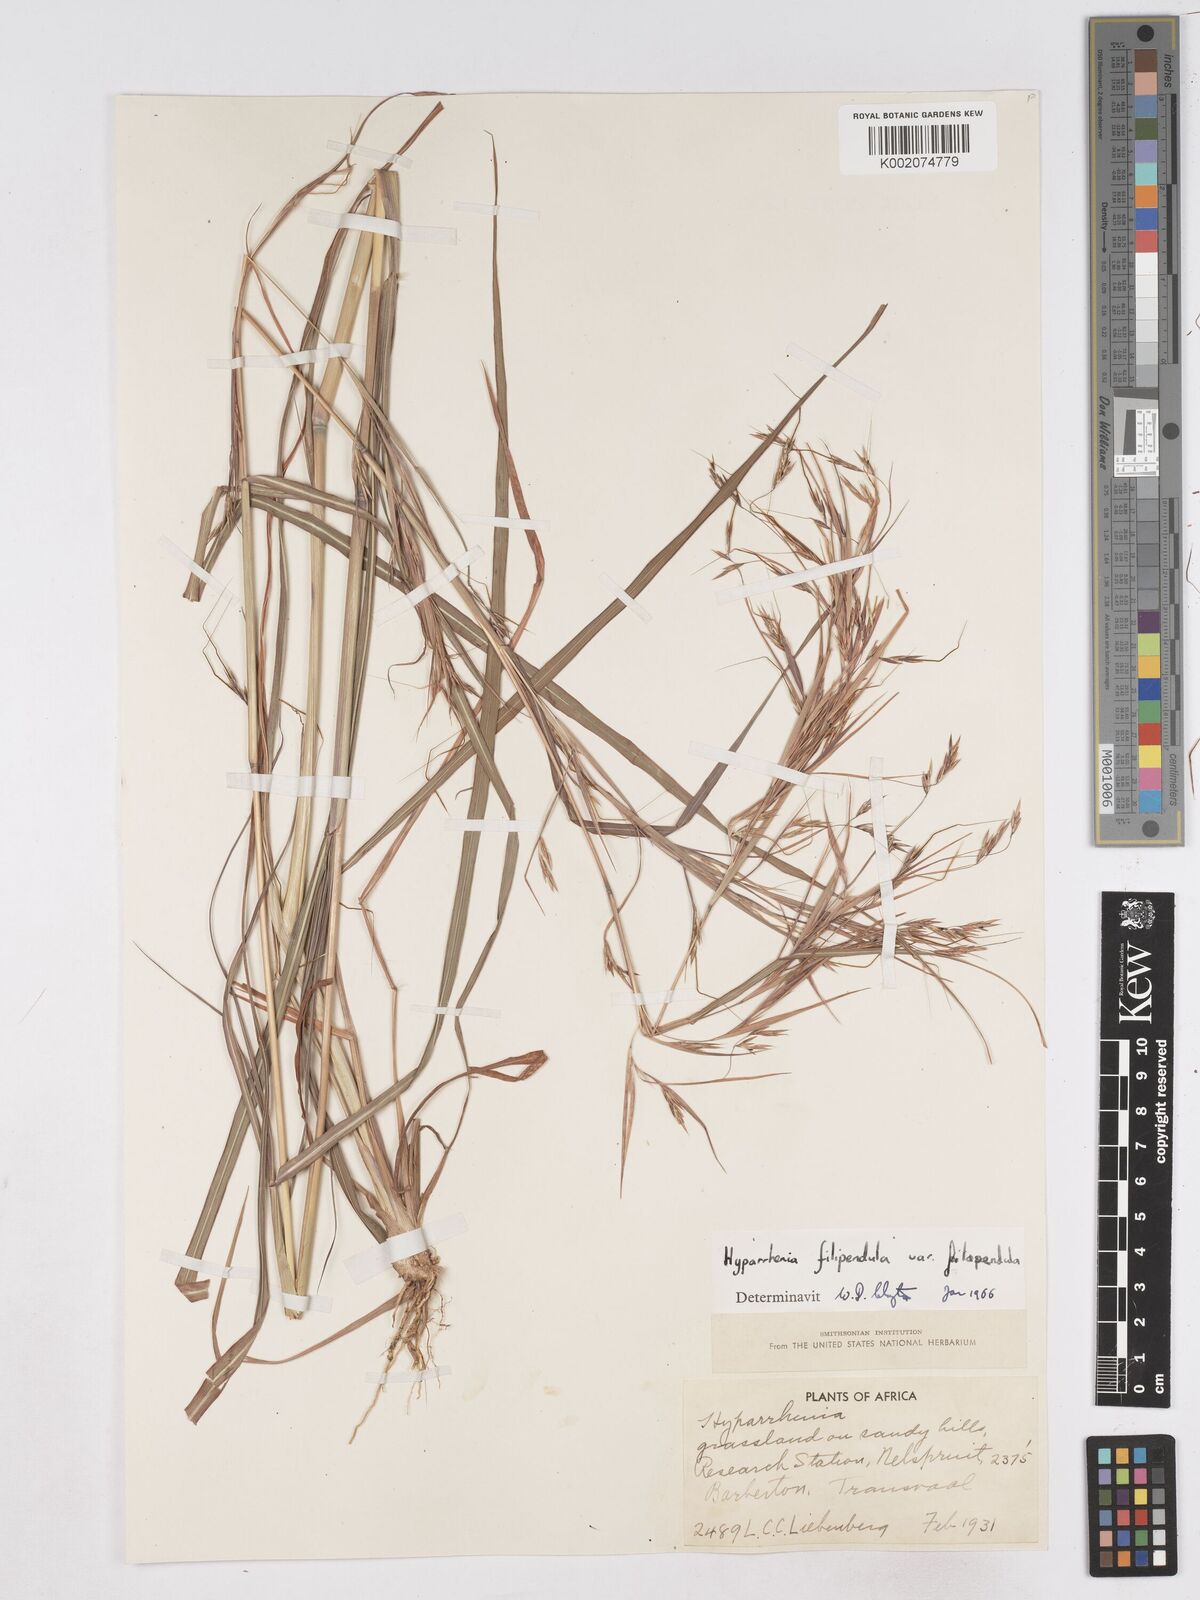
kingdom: Plantae
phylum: Tracheophyta
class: Liliopsida
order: Poales
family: Poaceae
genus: Hyparrhenia
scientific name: Hyparrhenia filipendula
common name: Tambookie grass
